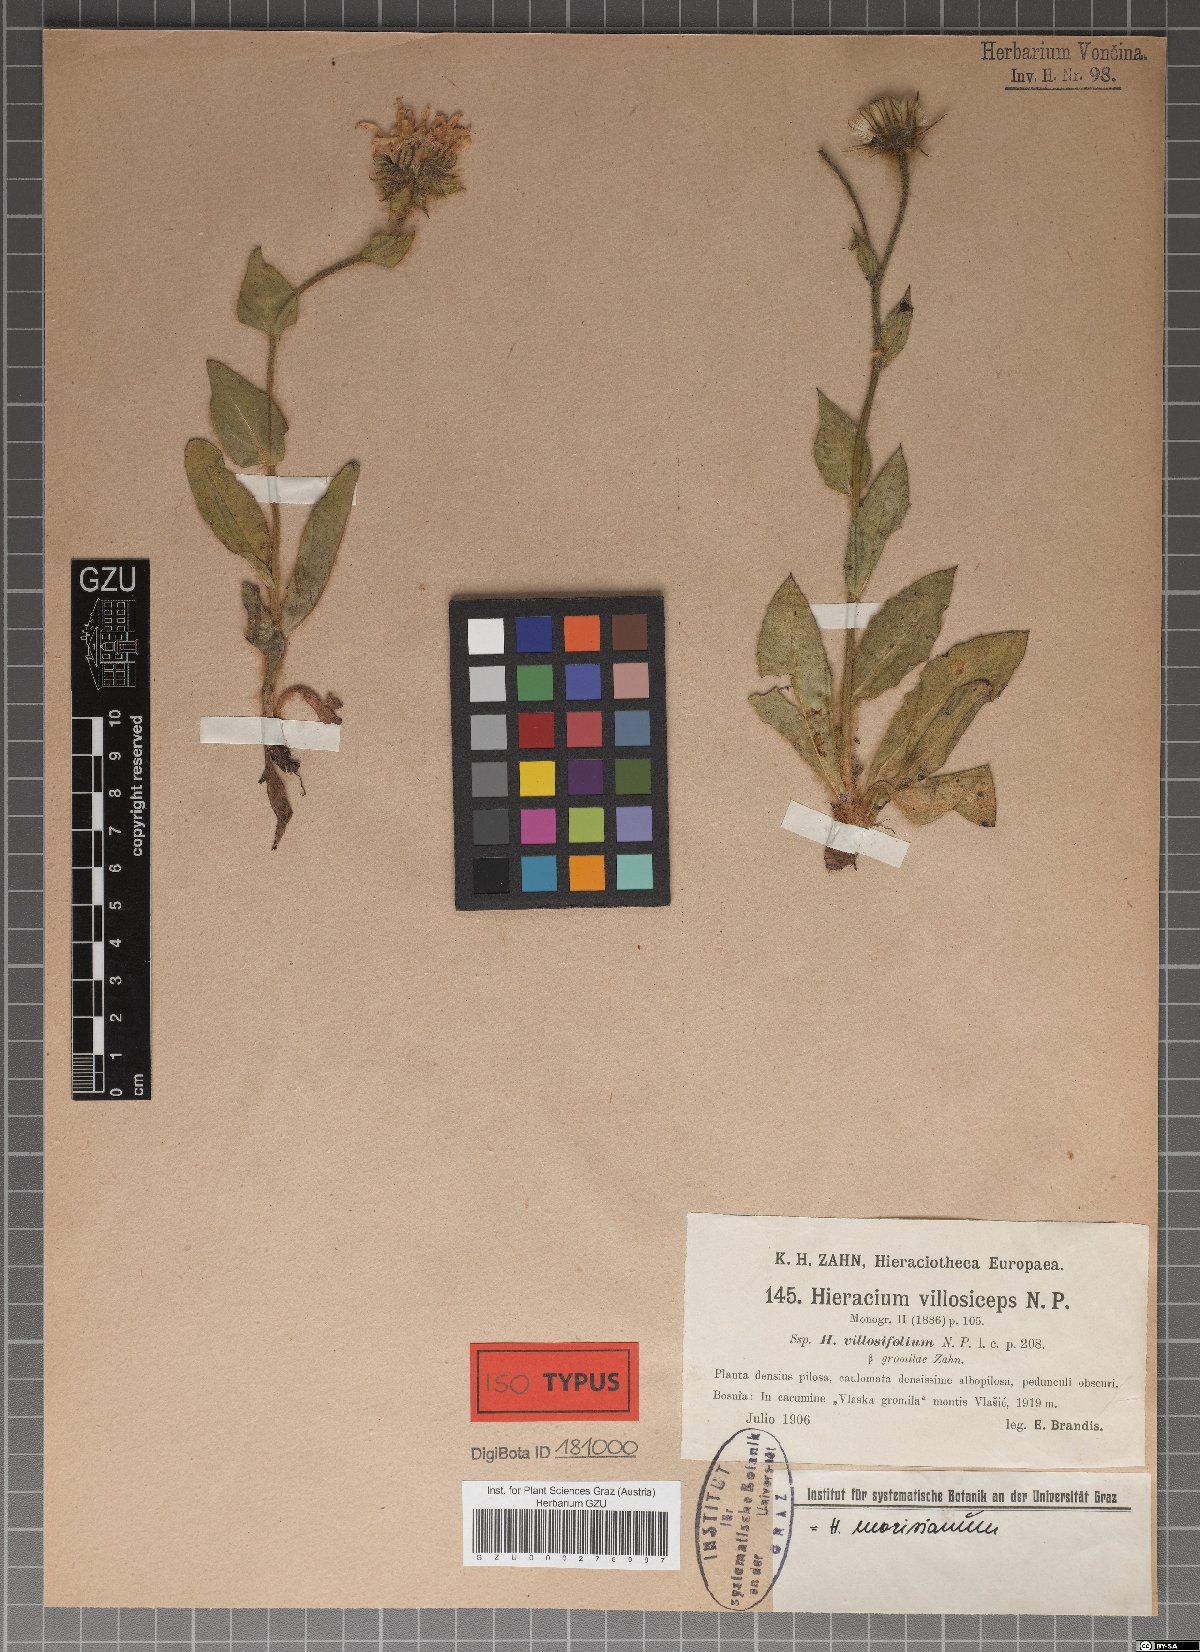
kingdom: Plantae
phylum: Tracheophyta
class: Magnoliopsida
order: Asterales
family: Asteraceae
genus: Hieracium
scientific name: Hieracium
